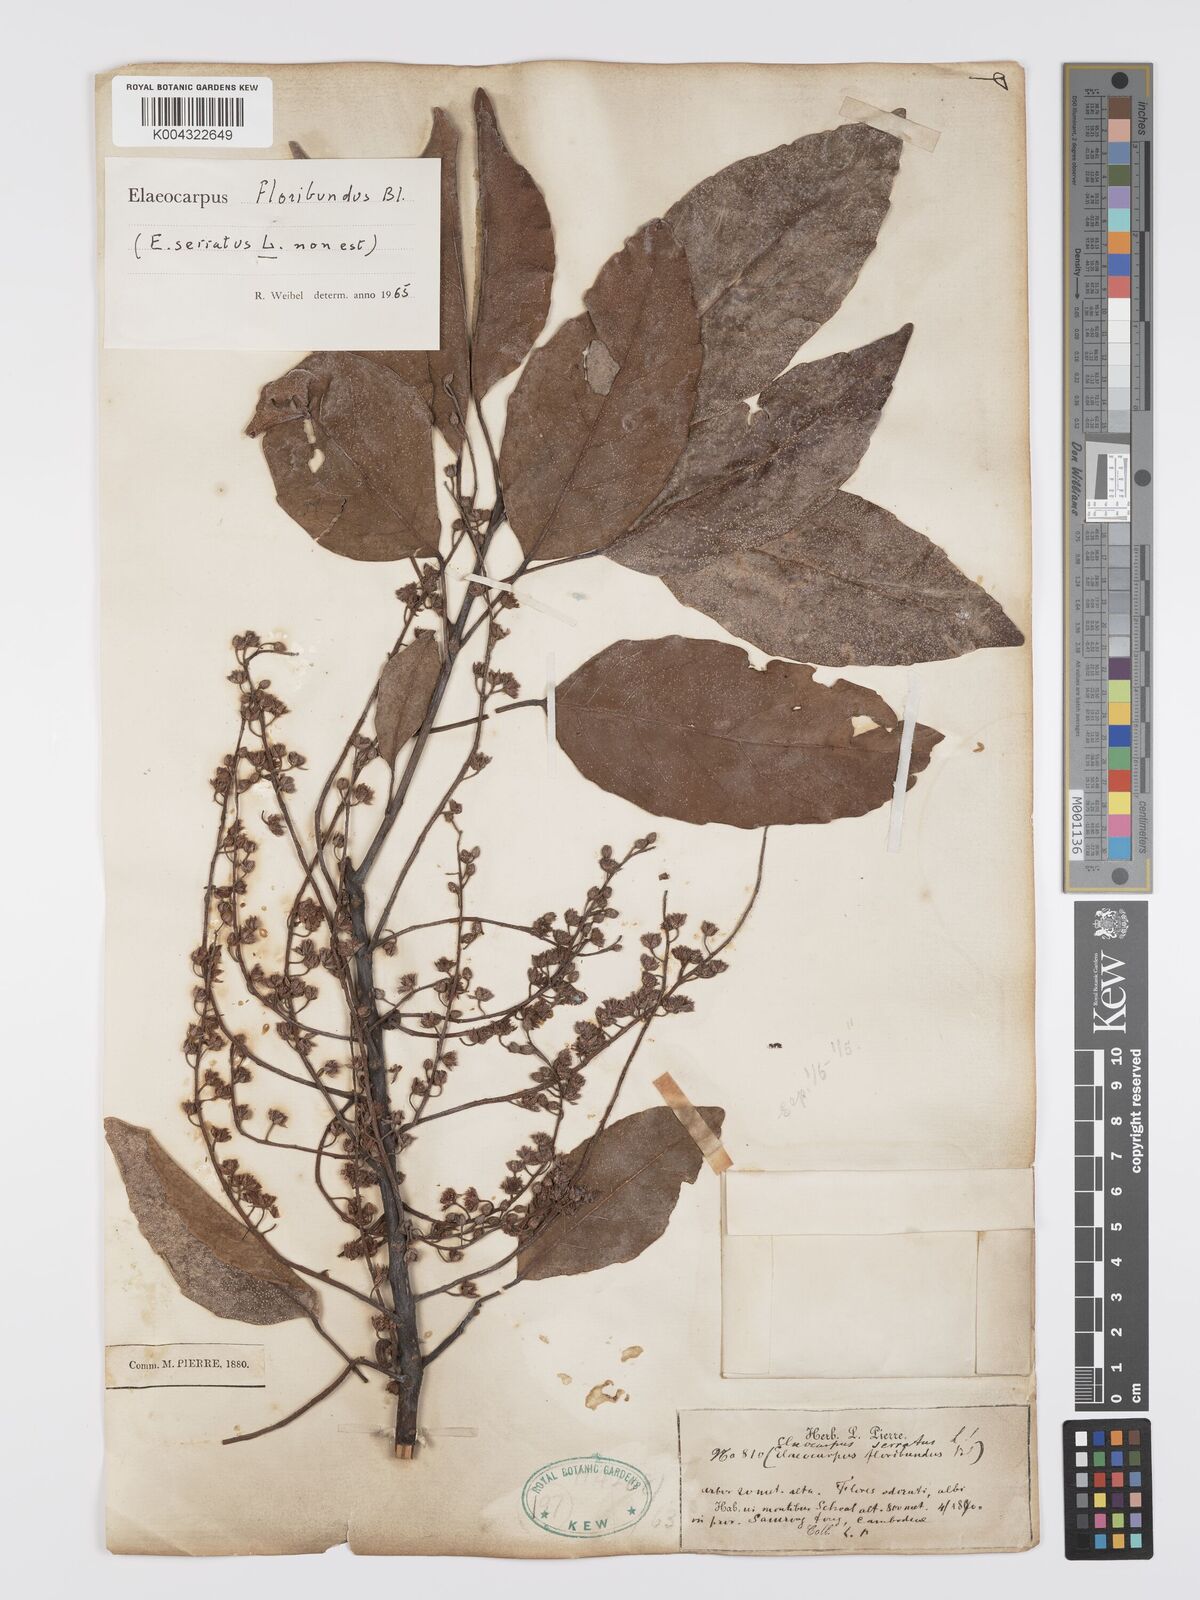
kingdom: Plantae
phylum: Tracheophyta
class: Magnoliopsida
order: Oxalidales
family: Elaeocarpaceae
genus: Elaeocarpus
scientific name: Elaeocarpus floribundus
